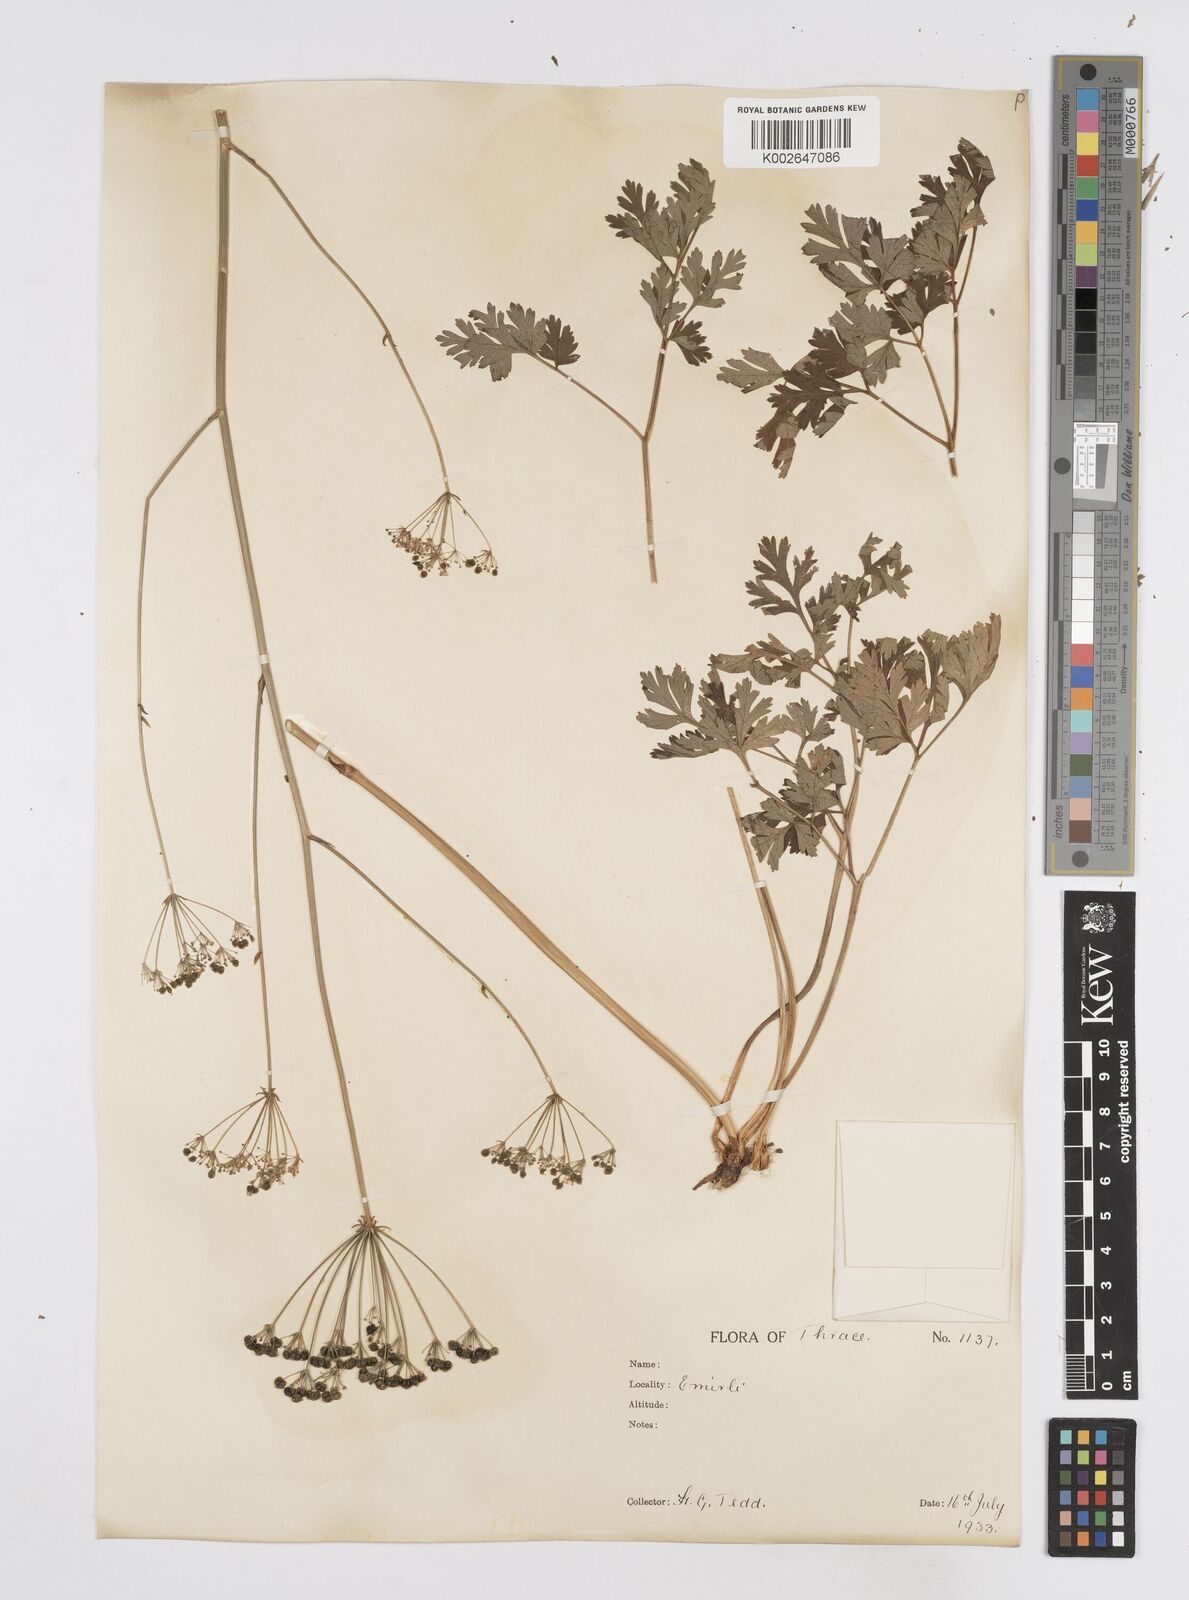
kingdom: Plantae
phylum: Tracheophyta
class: Magnoliopsida
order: Apiales
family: Apiaceae
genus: Physospermum
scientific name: Physospermum cornubiense
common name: Bladderseed
